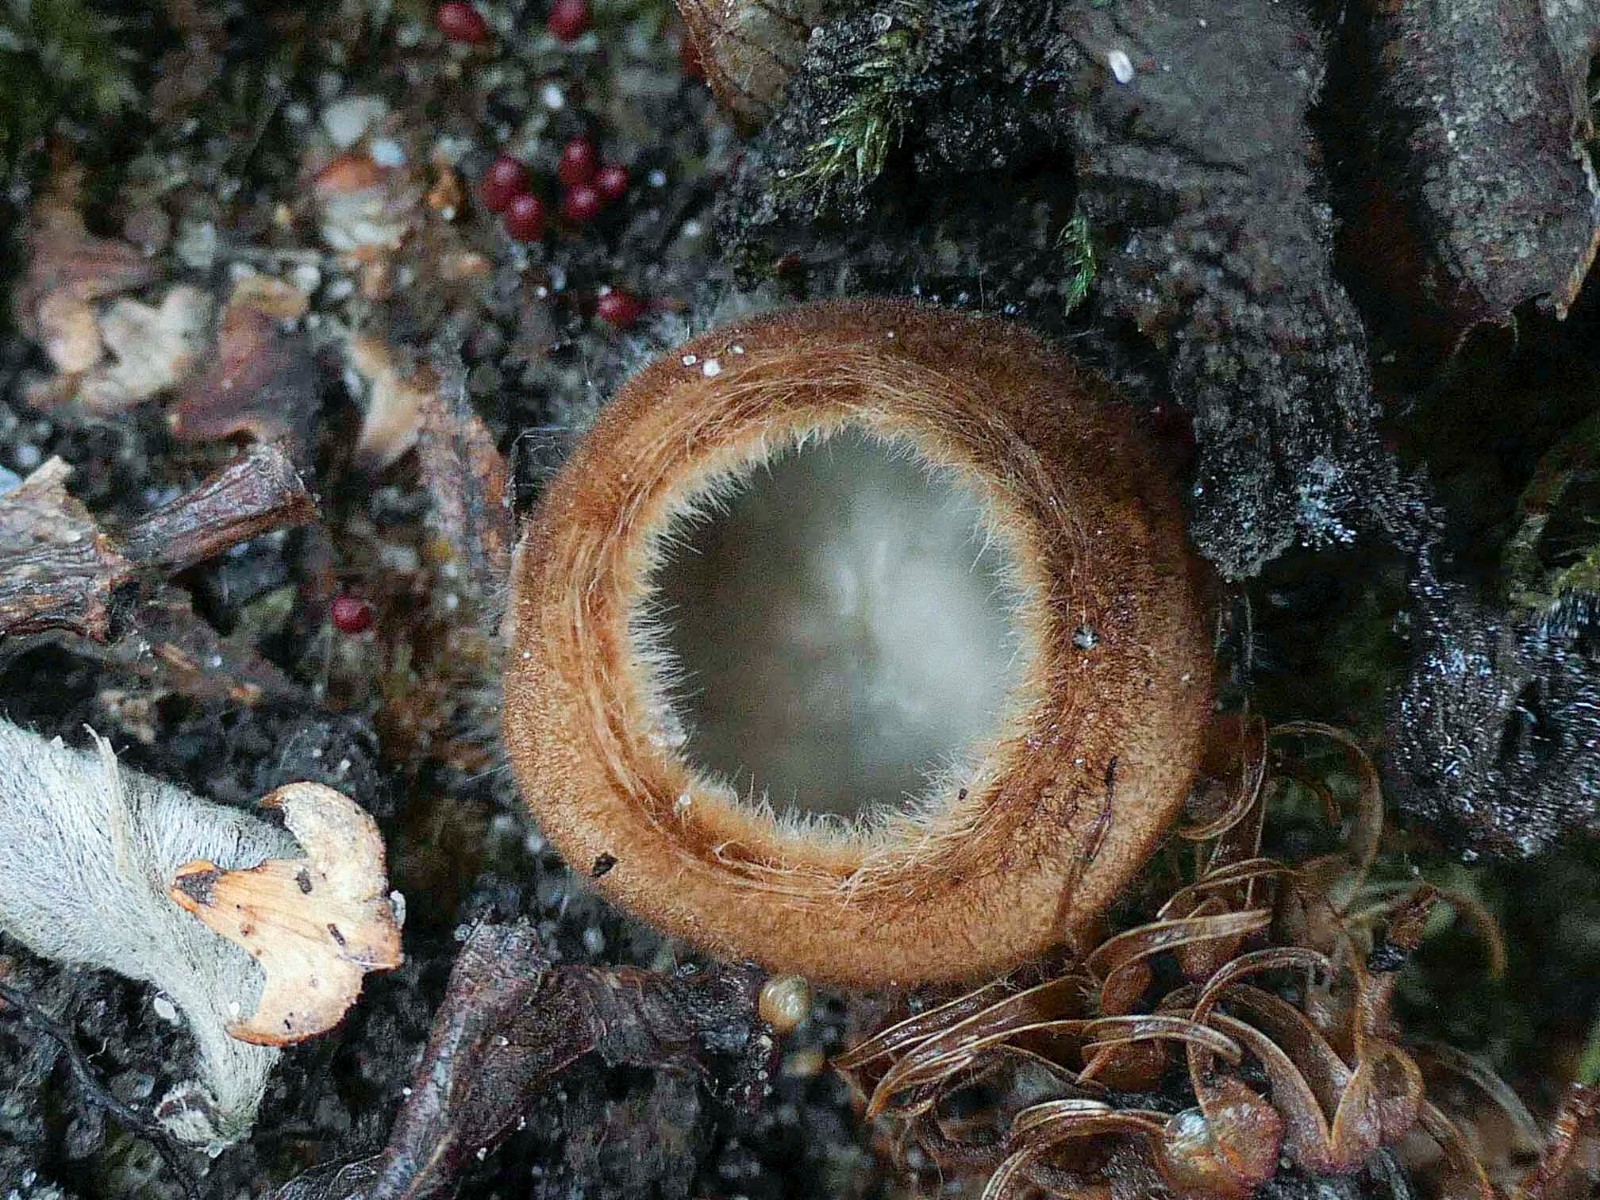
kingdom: Fungi
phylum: Ascomycota
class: Pezizomycetes
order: Pezizales
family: Pyronemataceae
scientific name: Pyronemataceae
